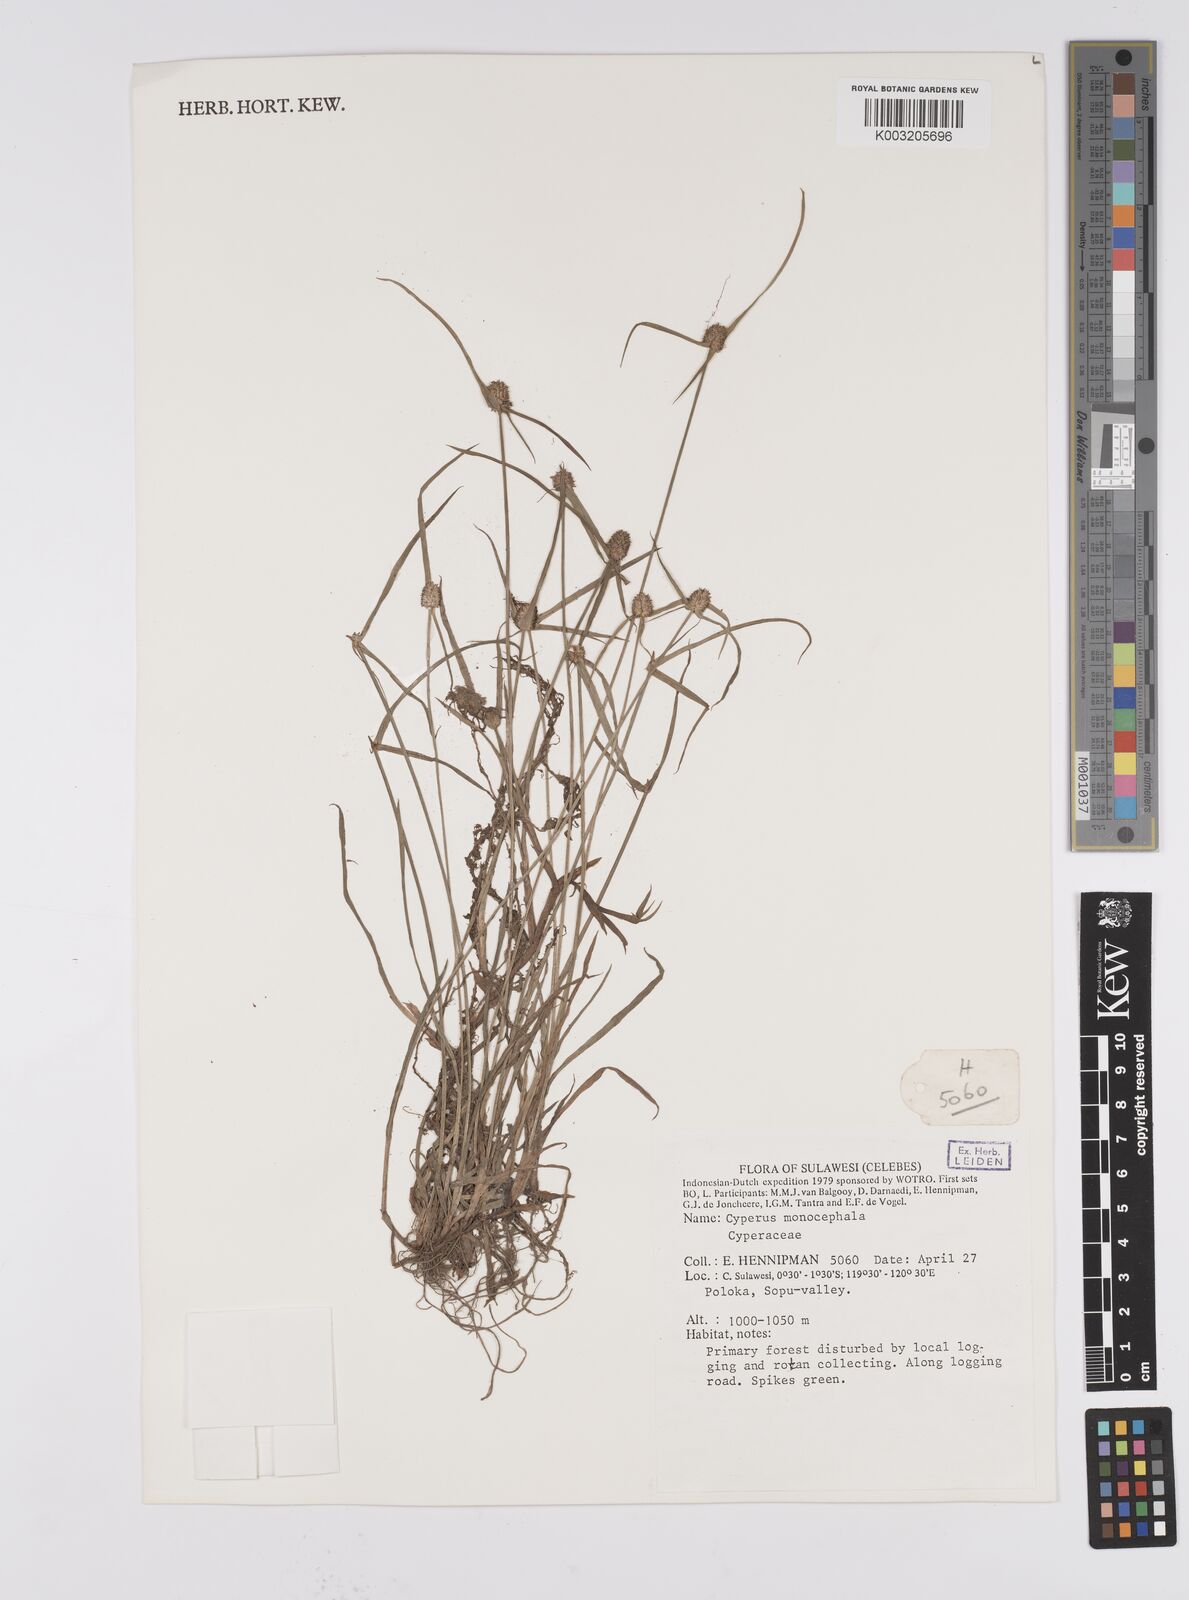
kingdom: Plantae
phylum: Tracheophyta
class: Liliopsida
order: Poales
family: Cyperaceae
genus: Cyperus
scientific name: Cyperus nemoralis
